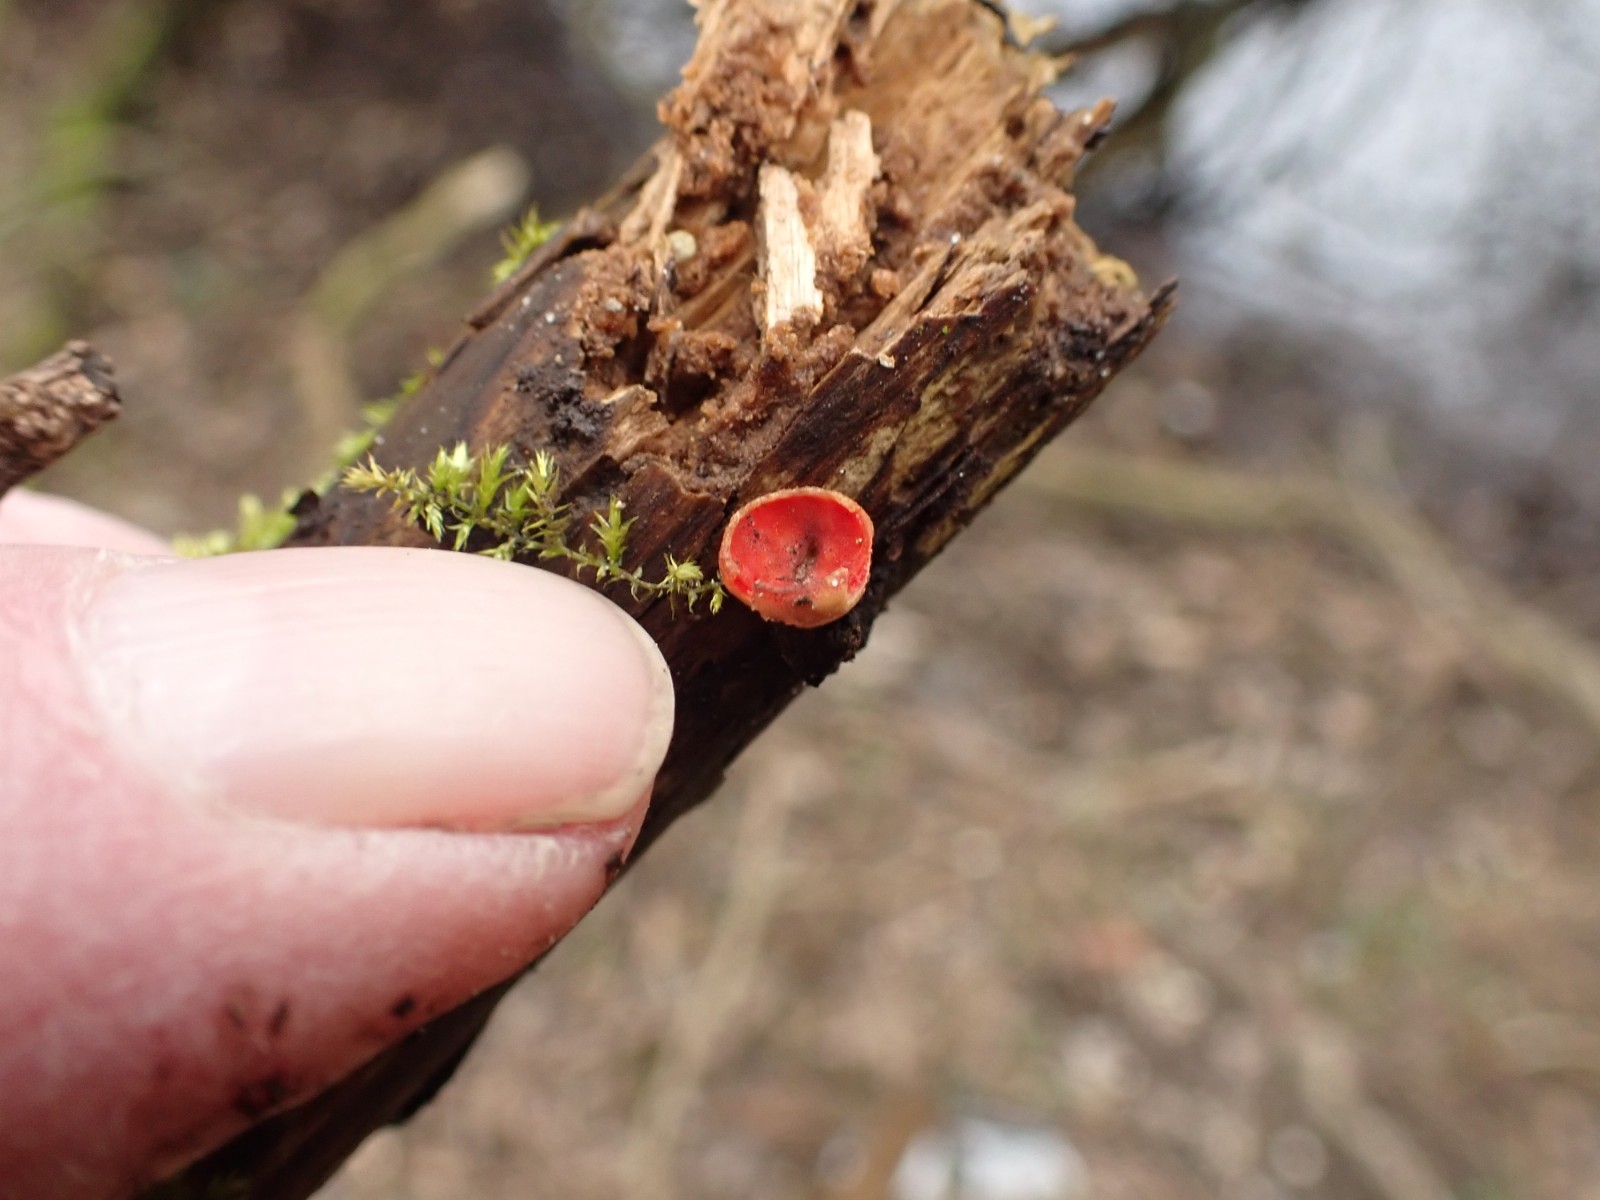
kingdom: Fungi
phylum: Ascomycota
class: Pezizomycetes
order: Pezizales
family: Sarcoscyphaceae
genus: Sarcoscypha
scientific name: Sarcoscypha austriaca
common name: krølhåret pragtbæger
